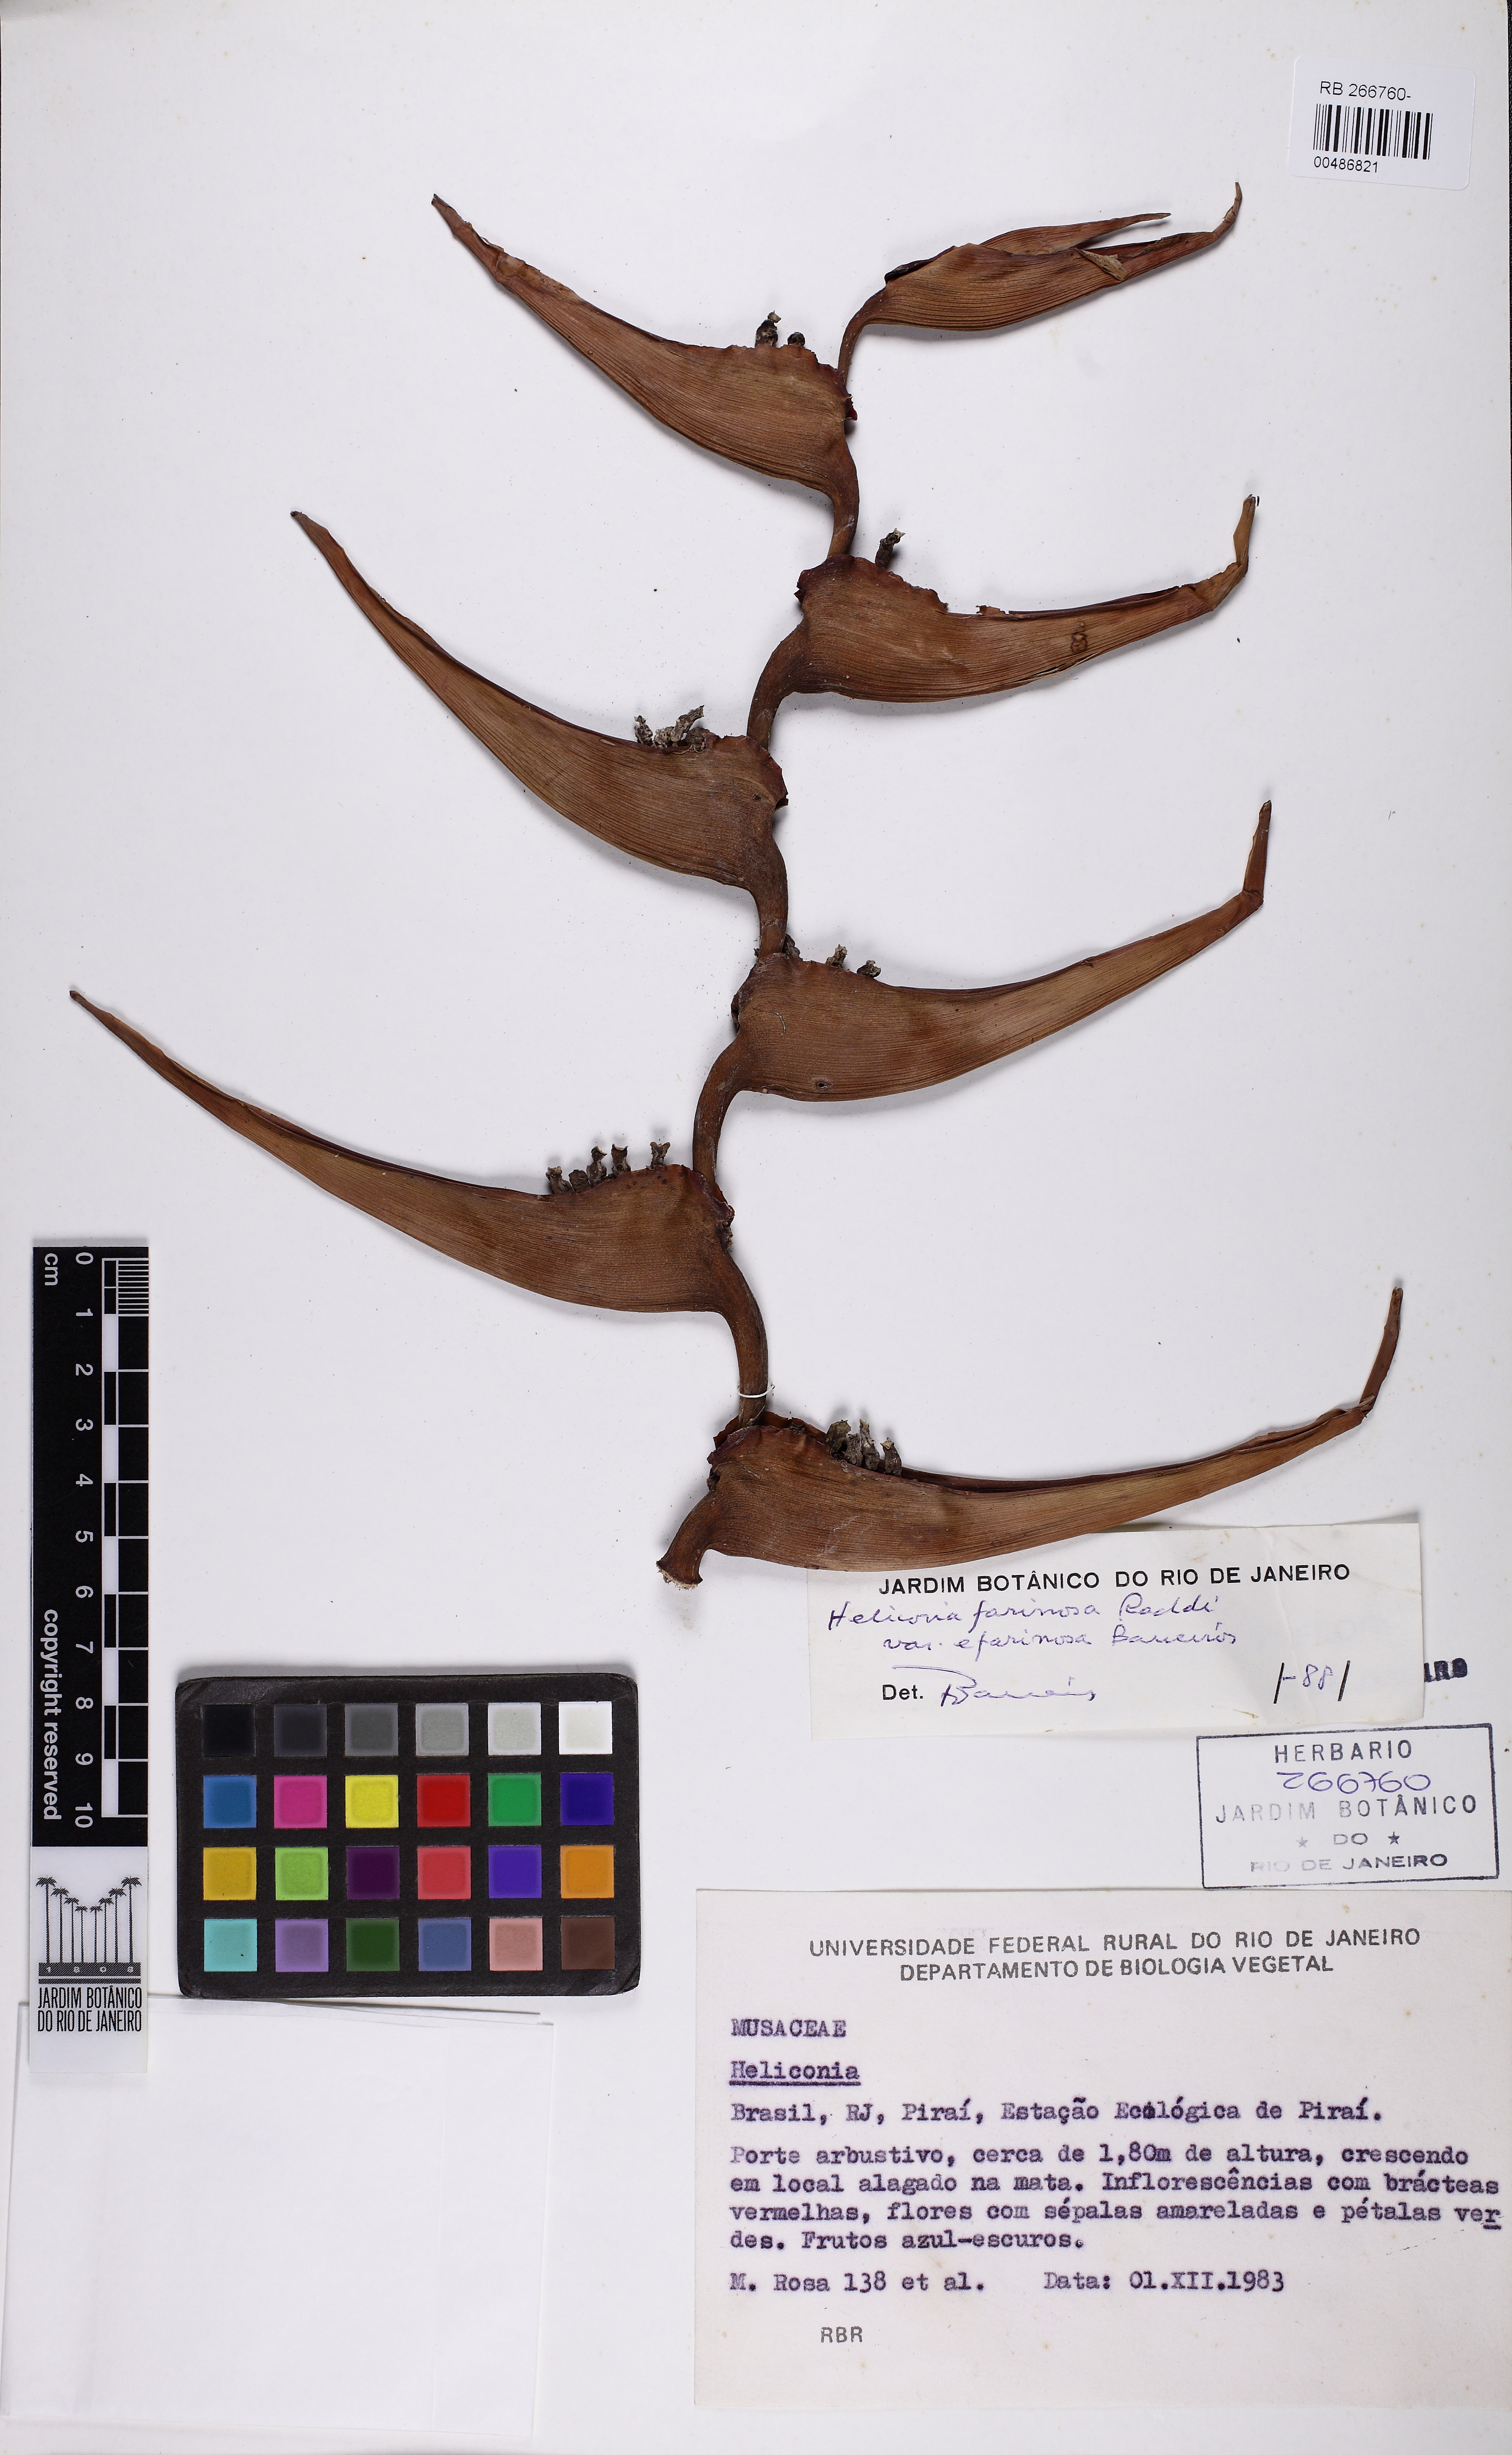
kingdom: Plantae
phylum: Tracheophyta
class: Liliopsida
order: Zingiberales
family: Heliconiaceae
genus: Heliconia
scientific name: Heliconia farinosa
